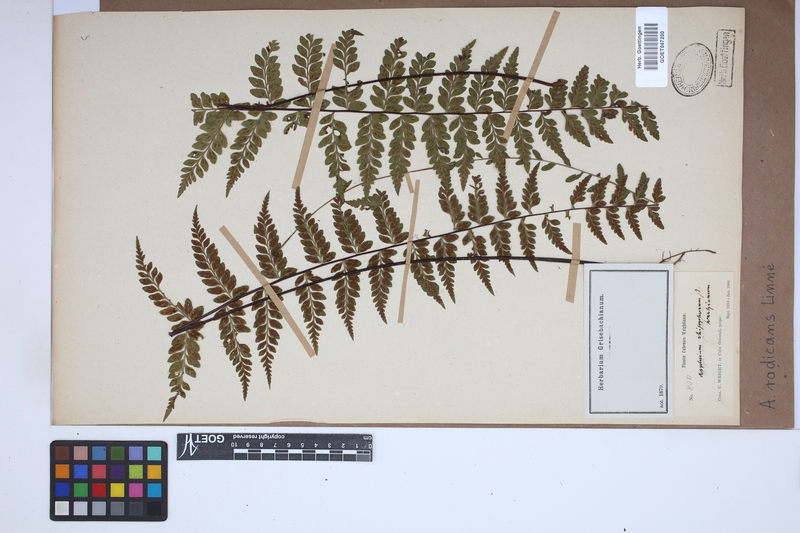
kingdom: Plantae
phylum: Tracheophyta
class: Polypodiopsida
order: Polypodiales
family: Aspleniaceae
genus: Asplenium
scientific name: Asplenium radicans
